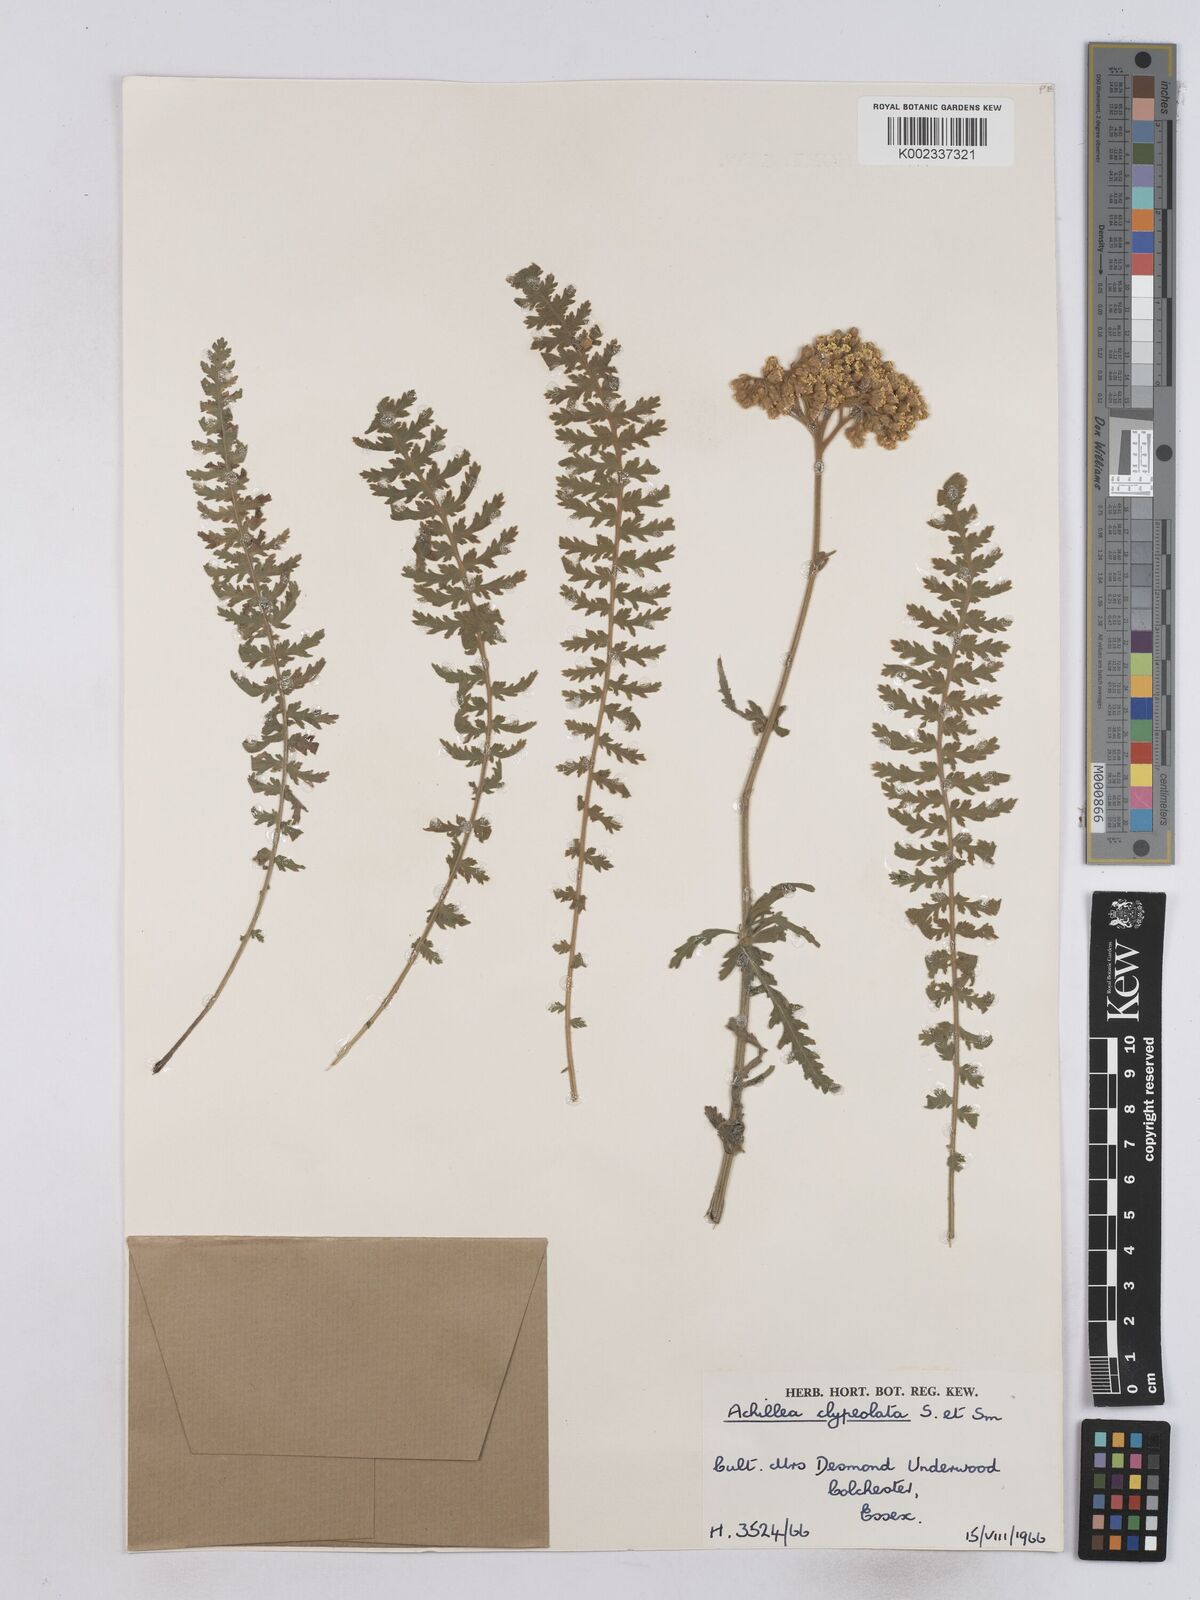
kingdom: Plantae
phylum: Tracheophyta
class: Magnoliopsida
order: Asterales
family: Asteraceae
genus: Achillea
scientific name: Achillea clypeolata
